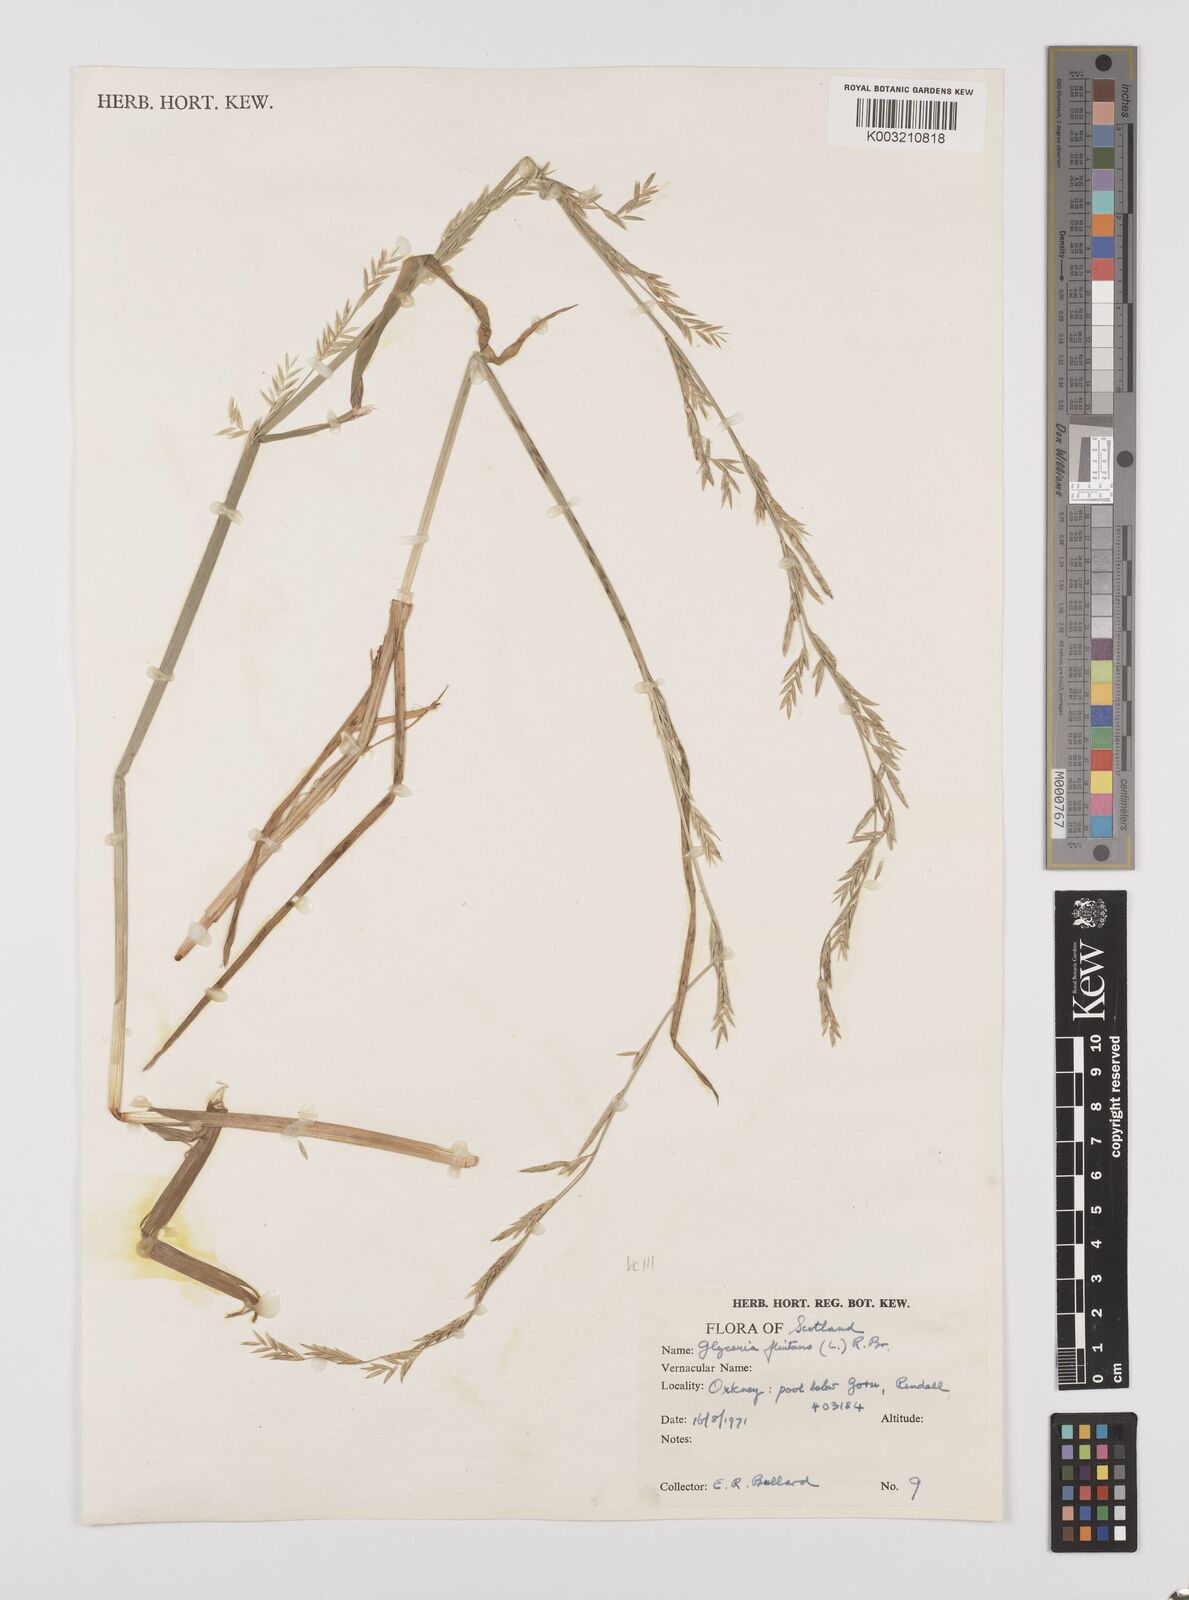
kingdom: Plantae
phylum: Tracheophyta
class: Liliopsida
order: Poales
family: Poaceae
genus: Glyceria
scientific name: Glyceria fluitans
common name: Floating sweet-grass
